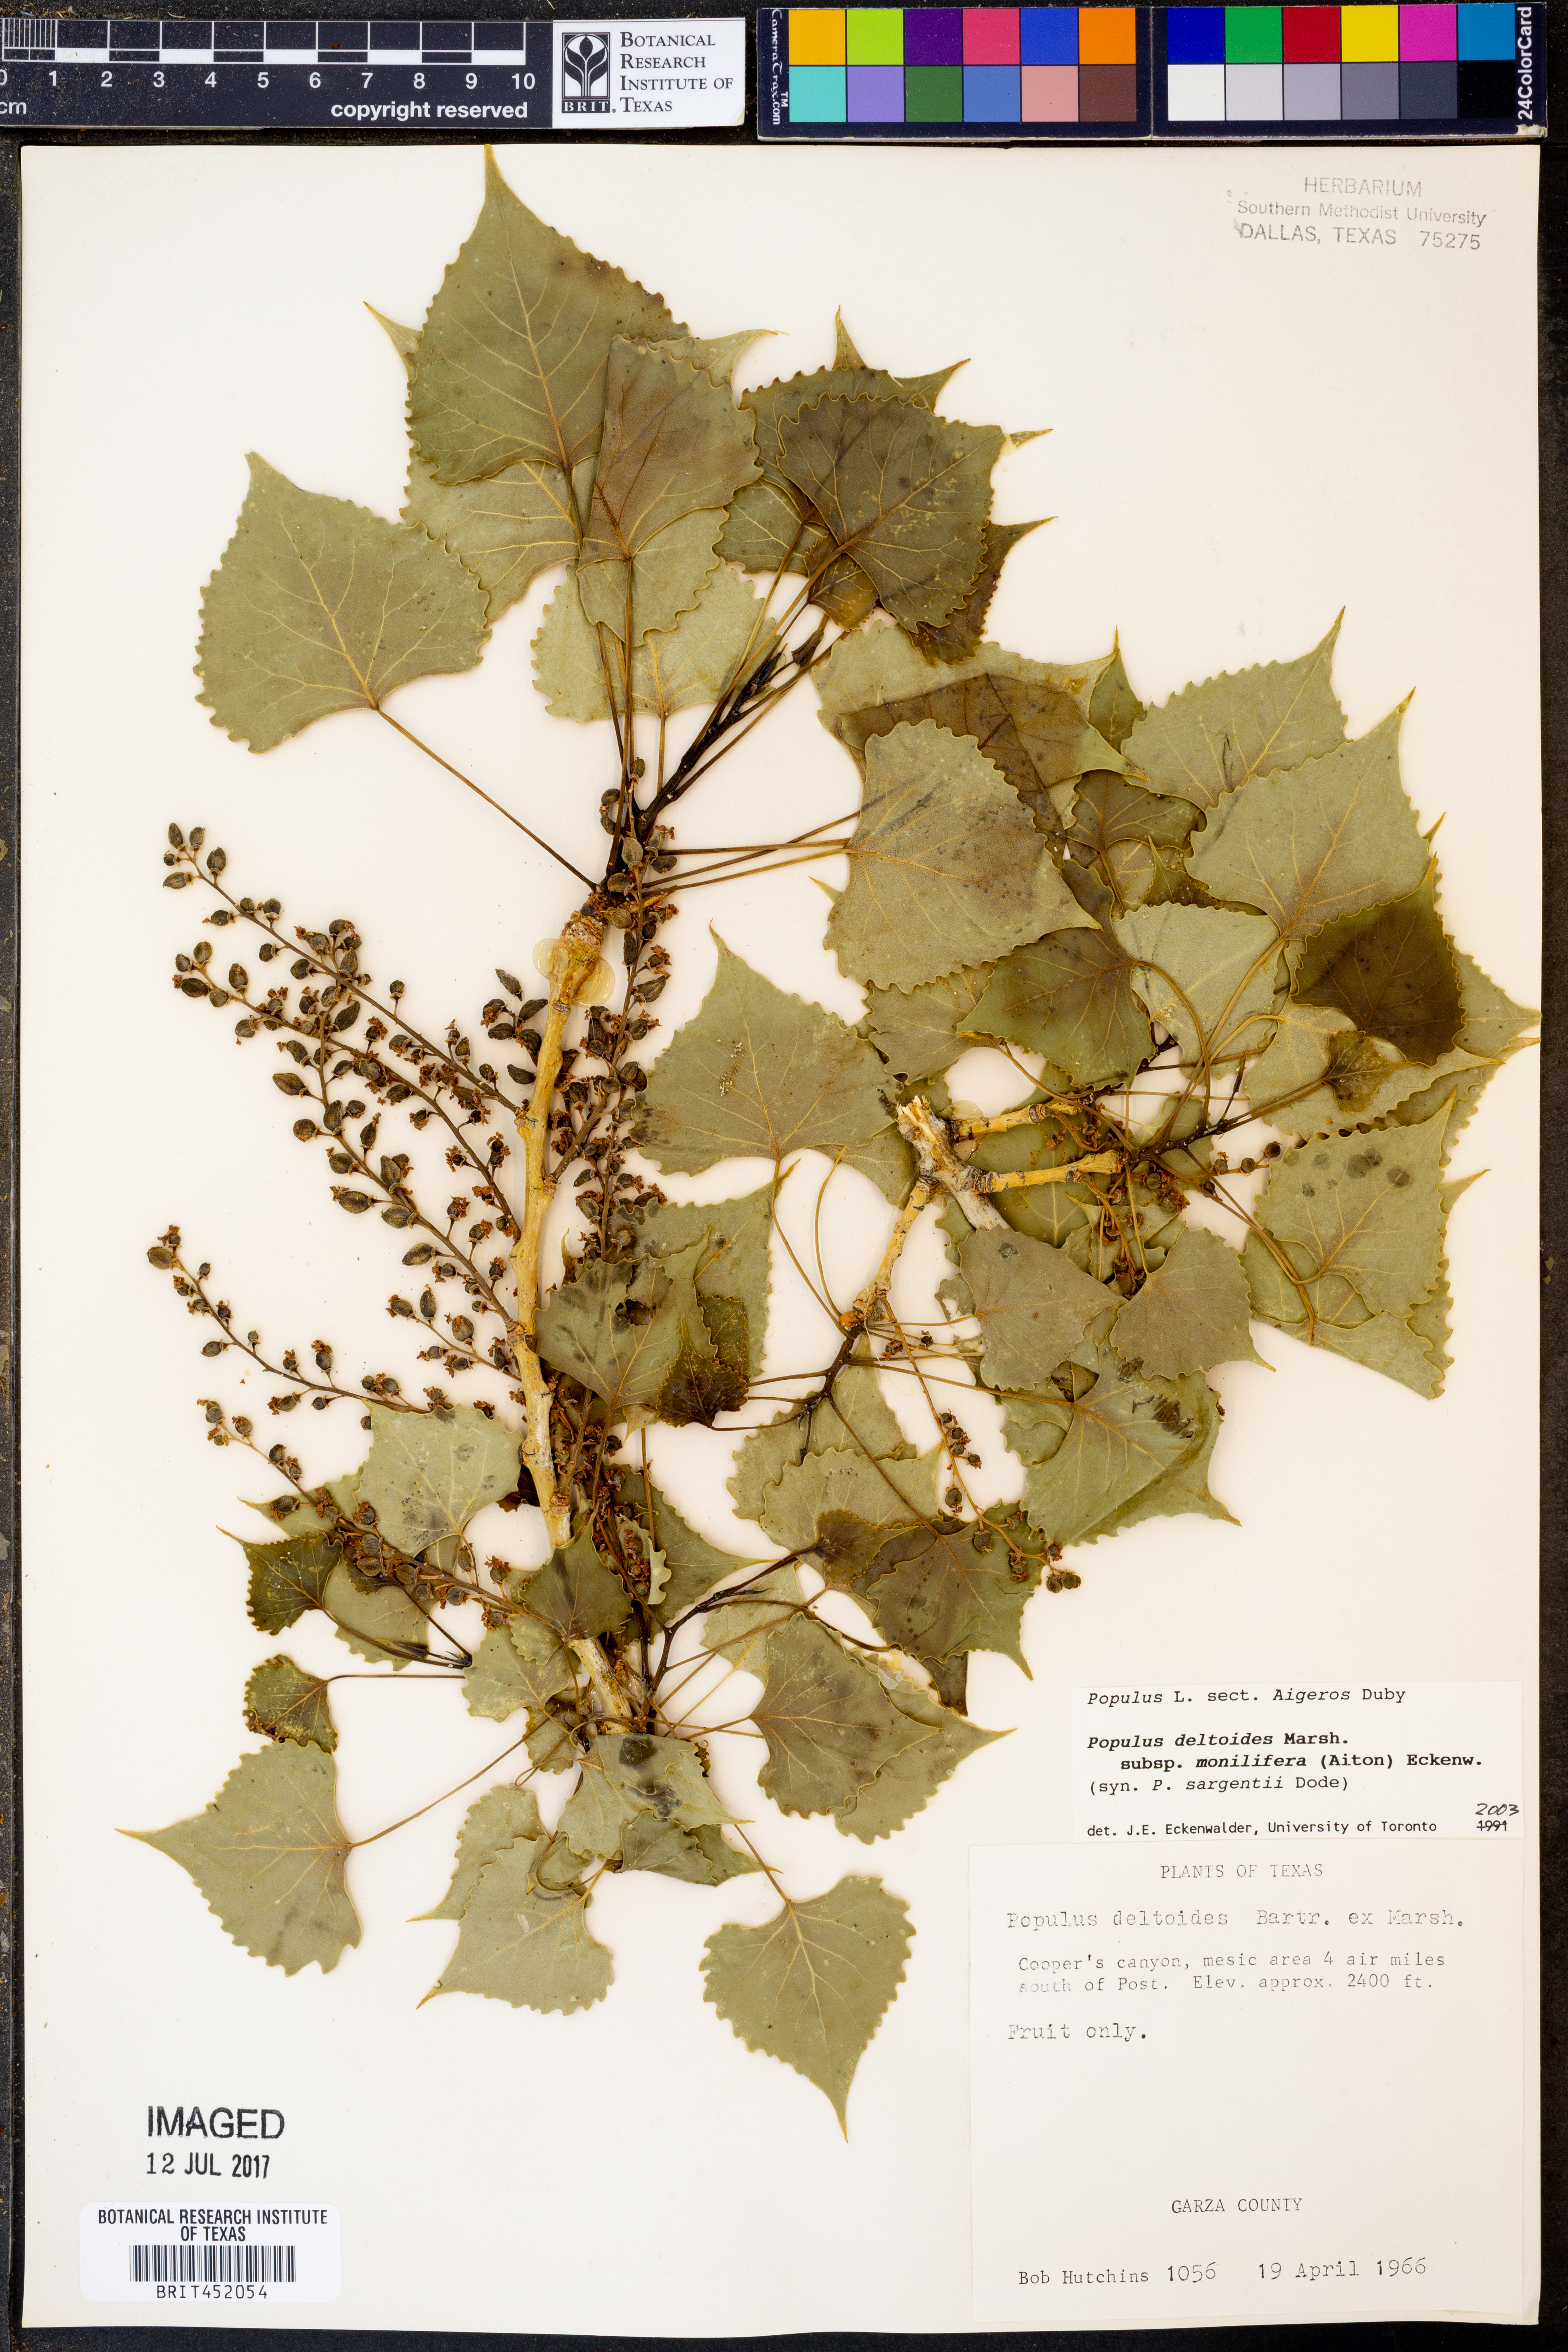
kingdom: Plantae
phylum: Tracheophyta
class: Magnoliopsida
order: Malpighiales
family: Salicaceae
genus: Populus
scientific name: Populus deltoides
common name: Eastern cottonwood
